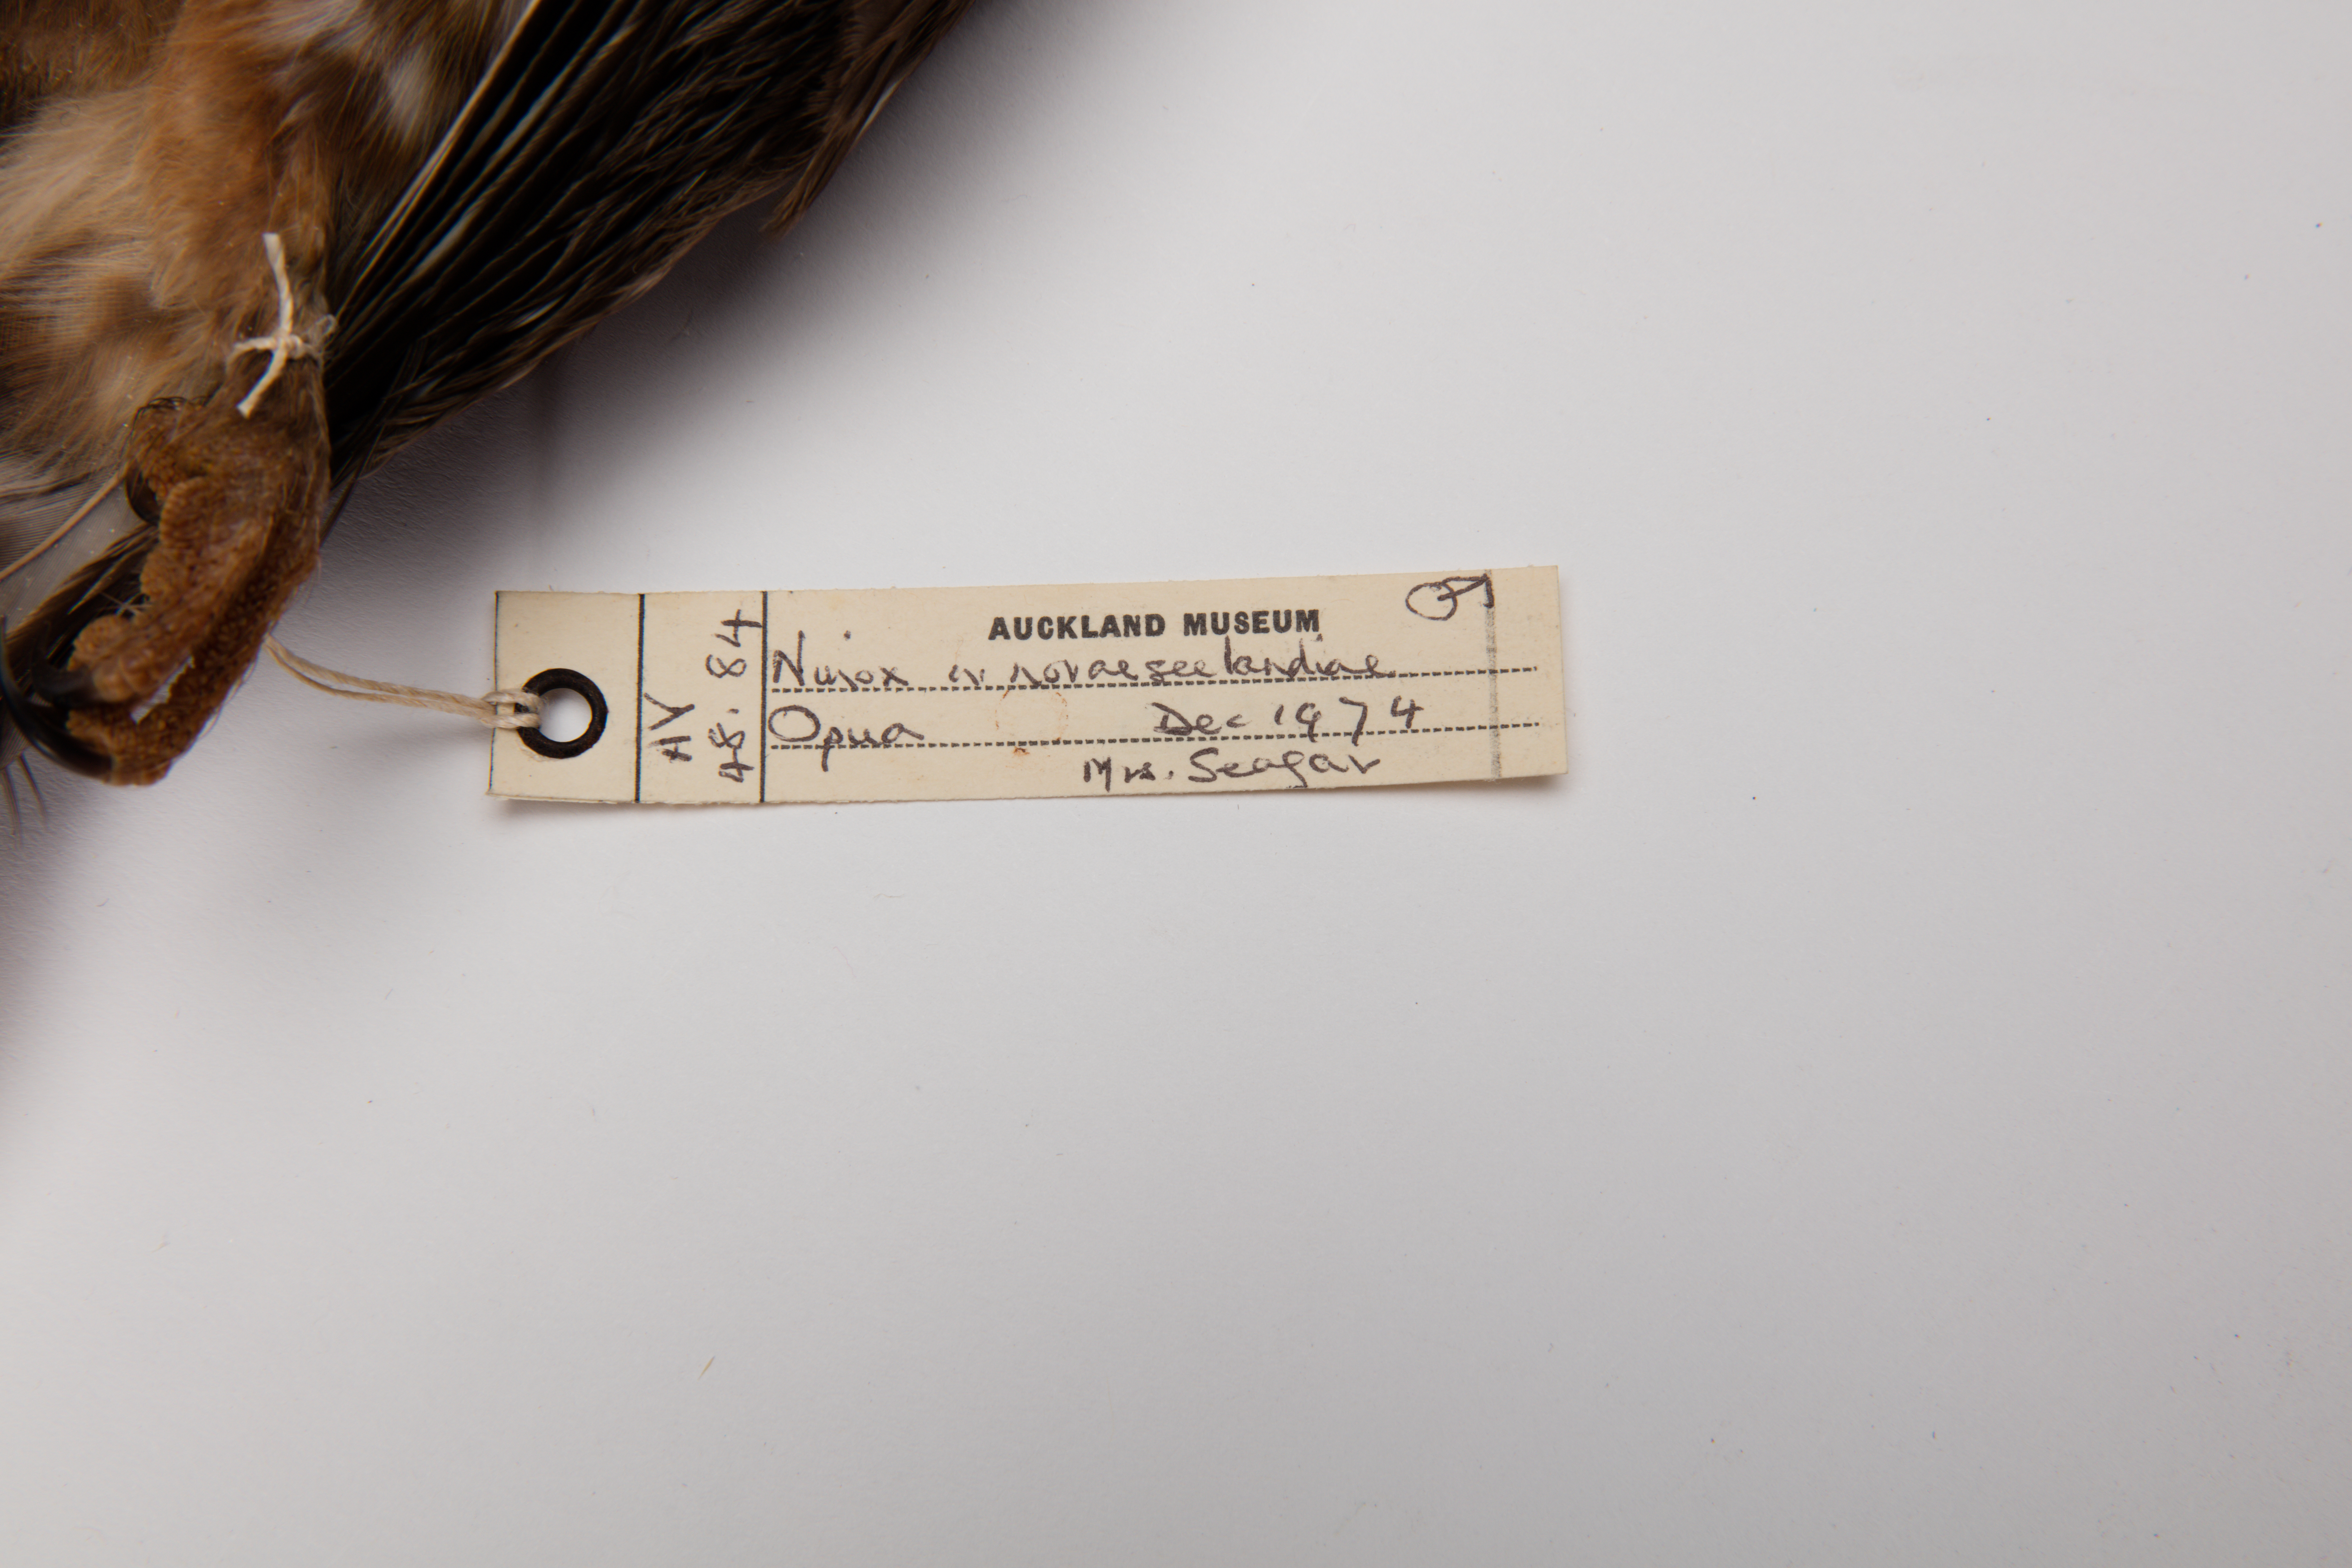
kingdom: Animalia
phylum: Chordata
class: Aves
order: Strigiformes
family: Strigidae
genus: Ninox
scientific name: Ninox novaeseelandiae
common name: Morepork
